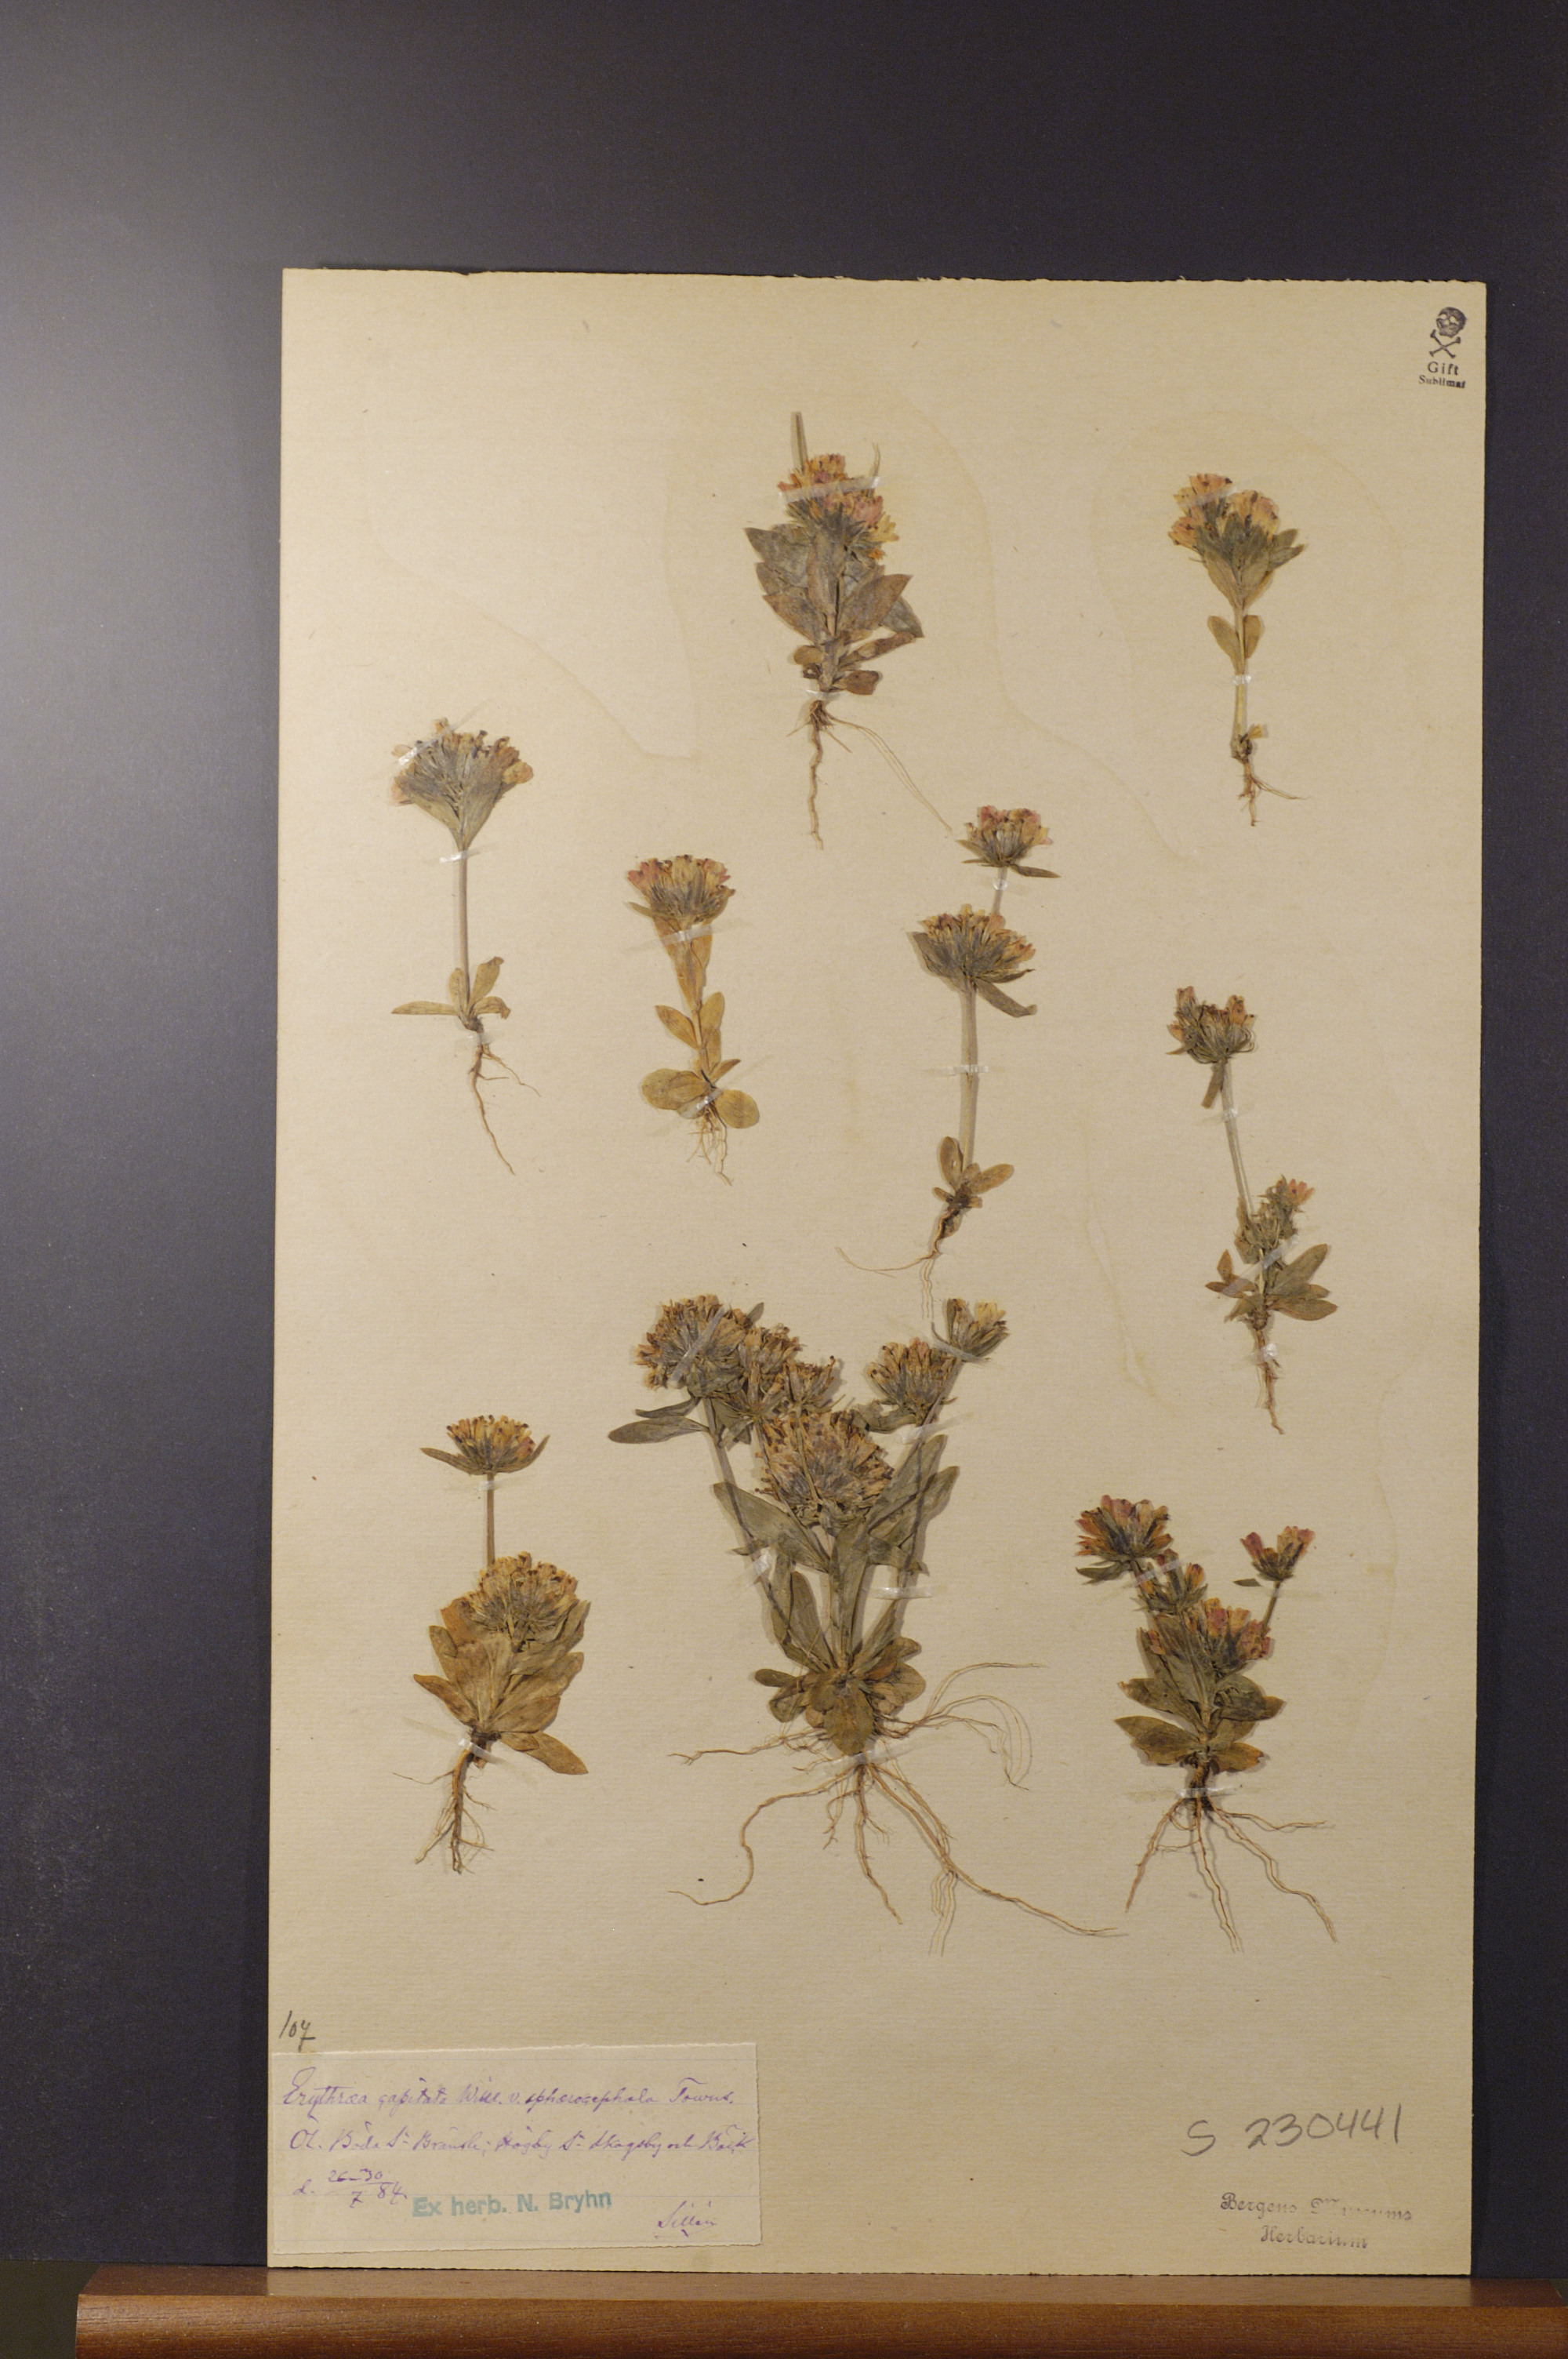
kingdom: Plantae
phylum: Tracheophyta
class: Magnoliopsida
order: Gentianales
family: Gentianaceae
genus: Centaurium
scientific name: Centaurium erythraea
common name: Common centaury
